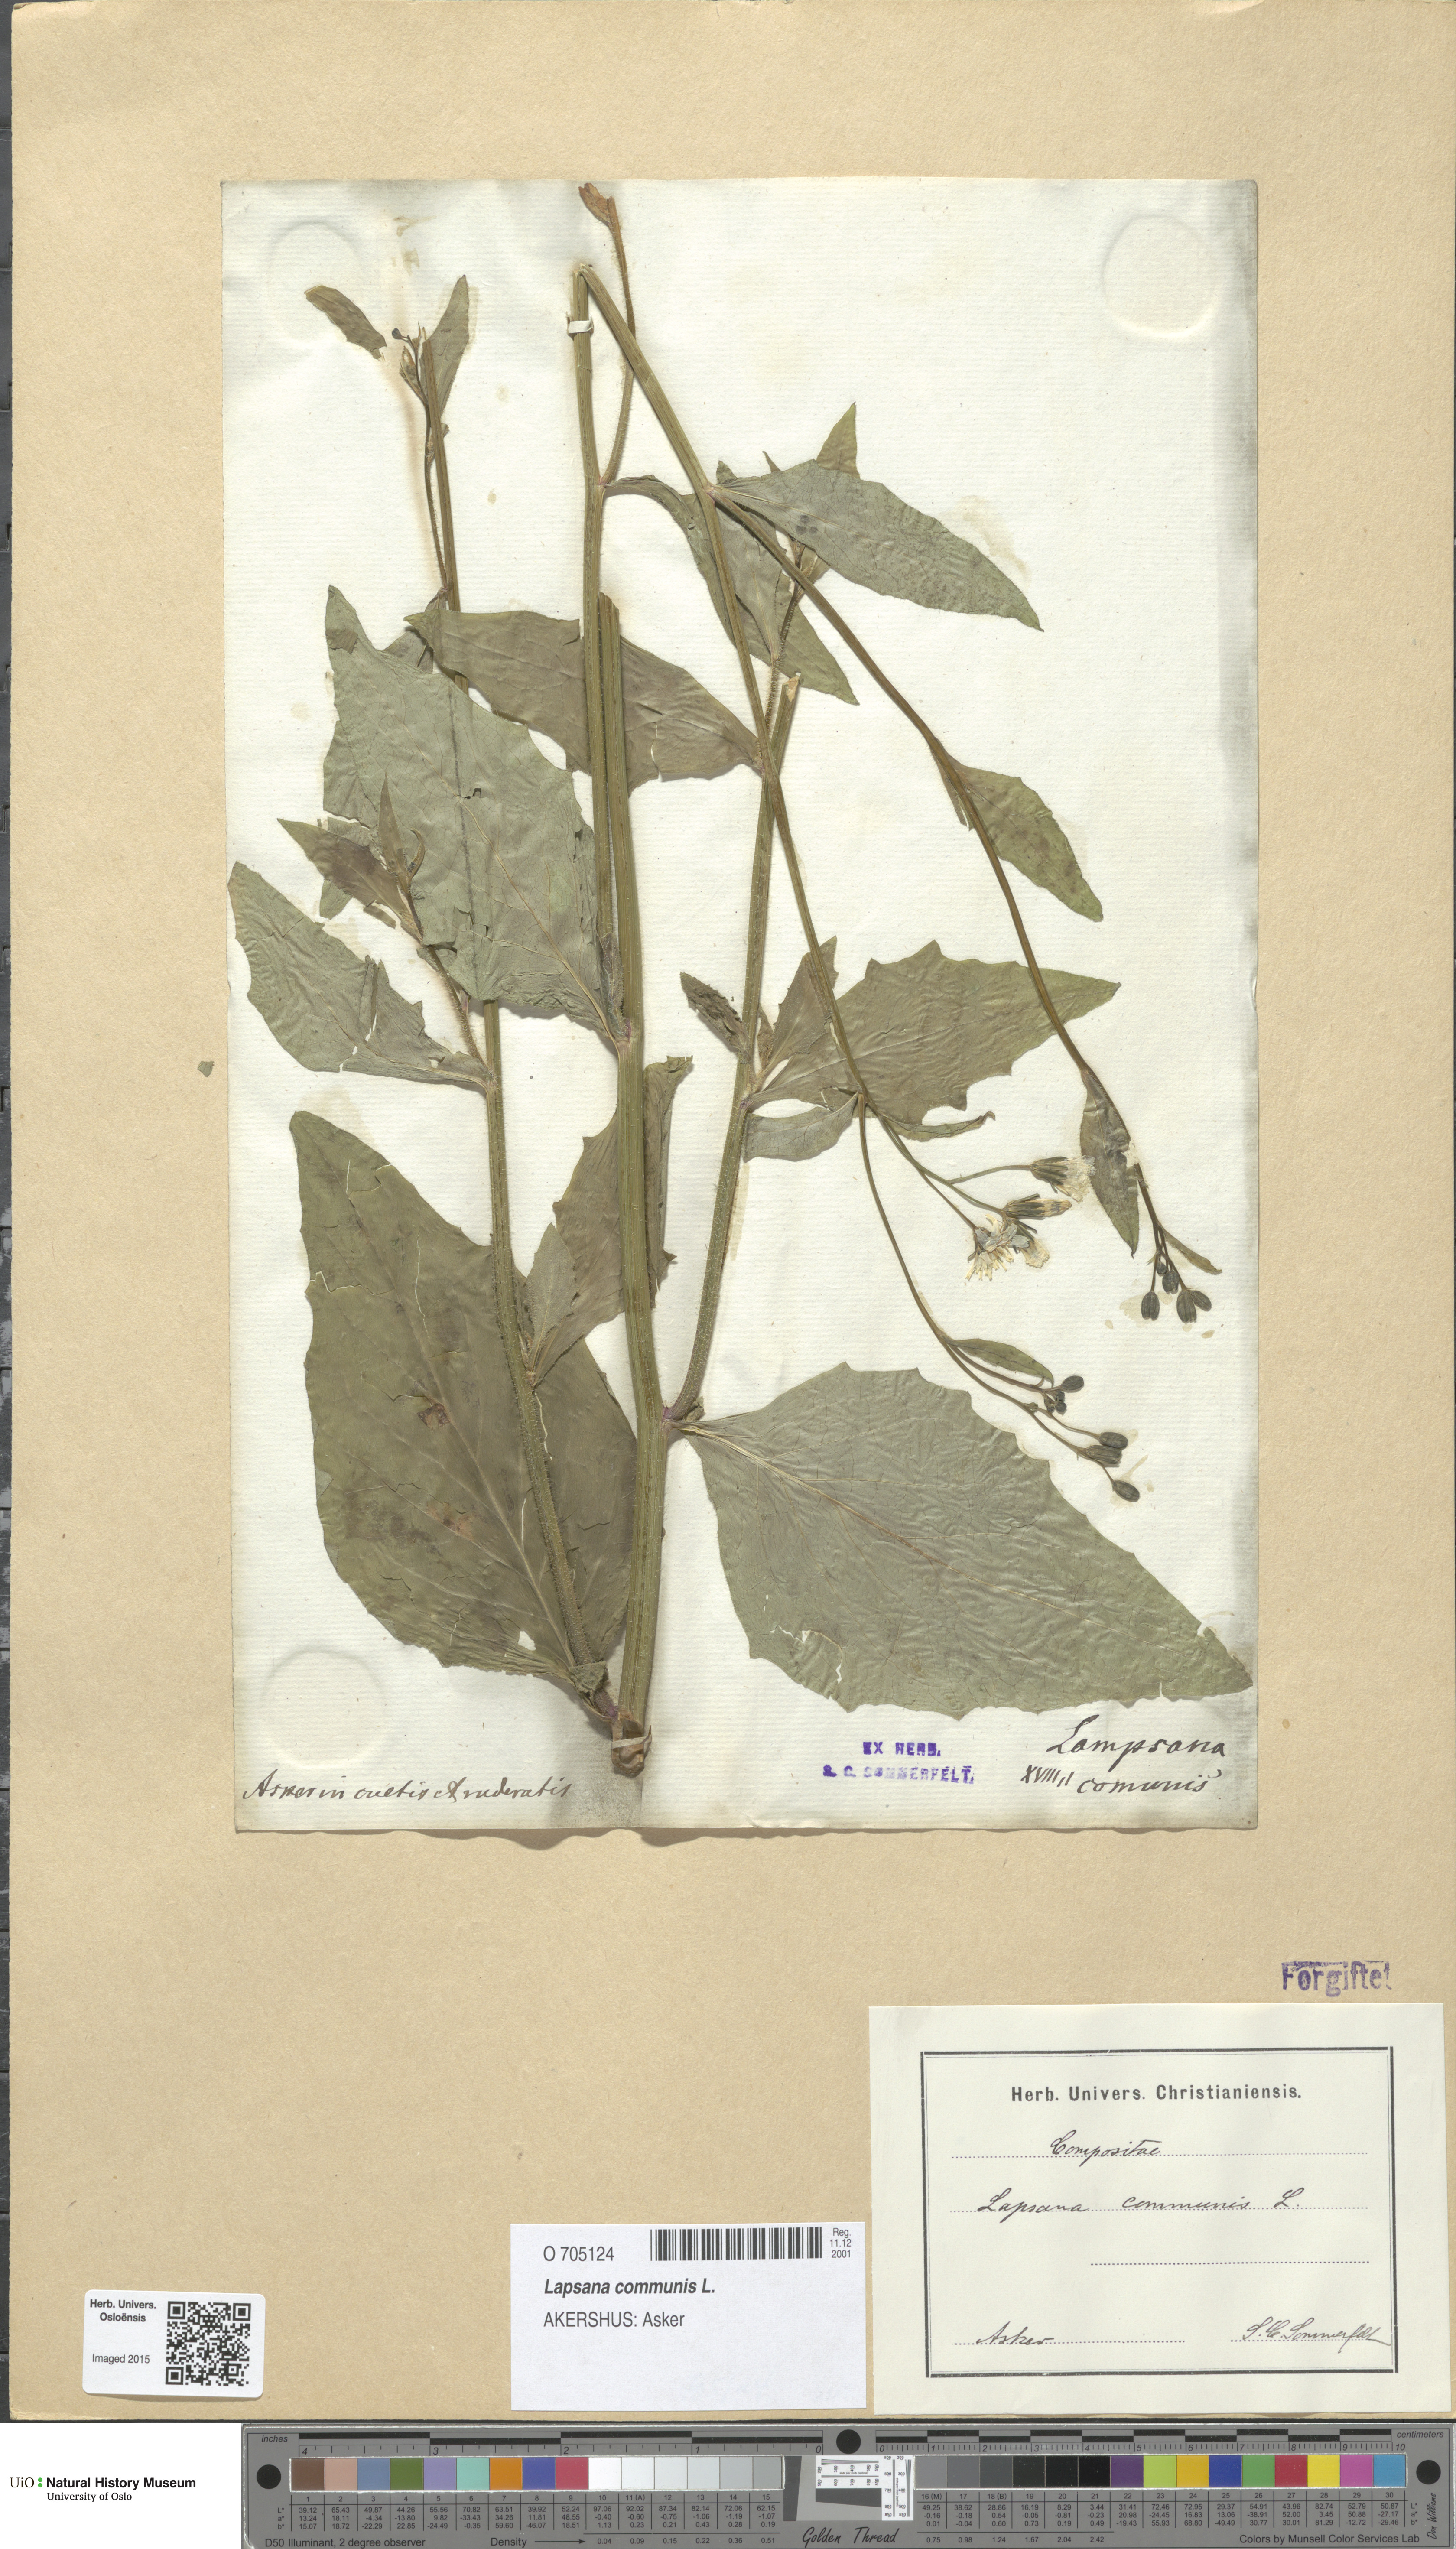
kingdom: Plantae
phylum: Tracheophyta
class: Magnoliopsida
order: Asterales
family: Asteraceae
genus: Lapsana
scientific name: Lapsana communis
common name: Nipplewort
